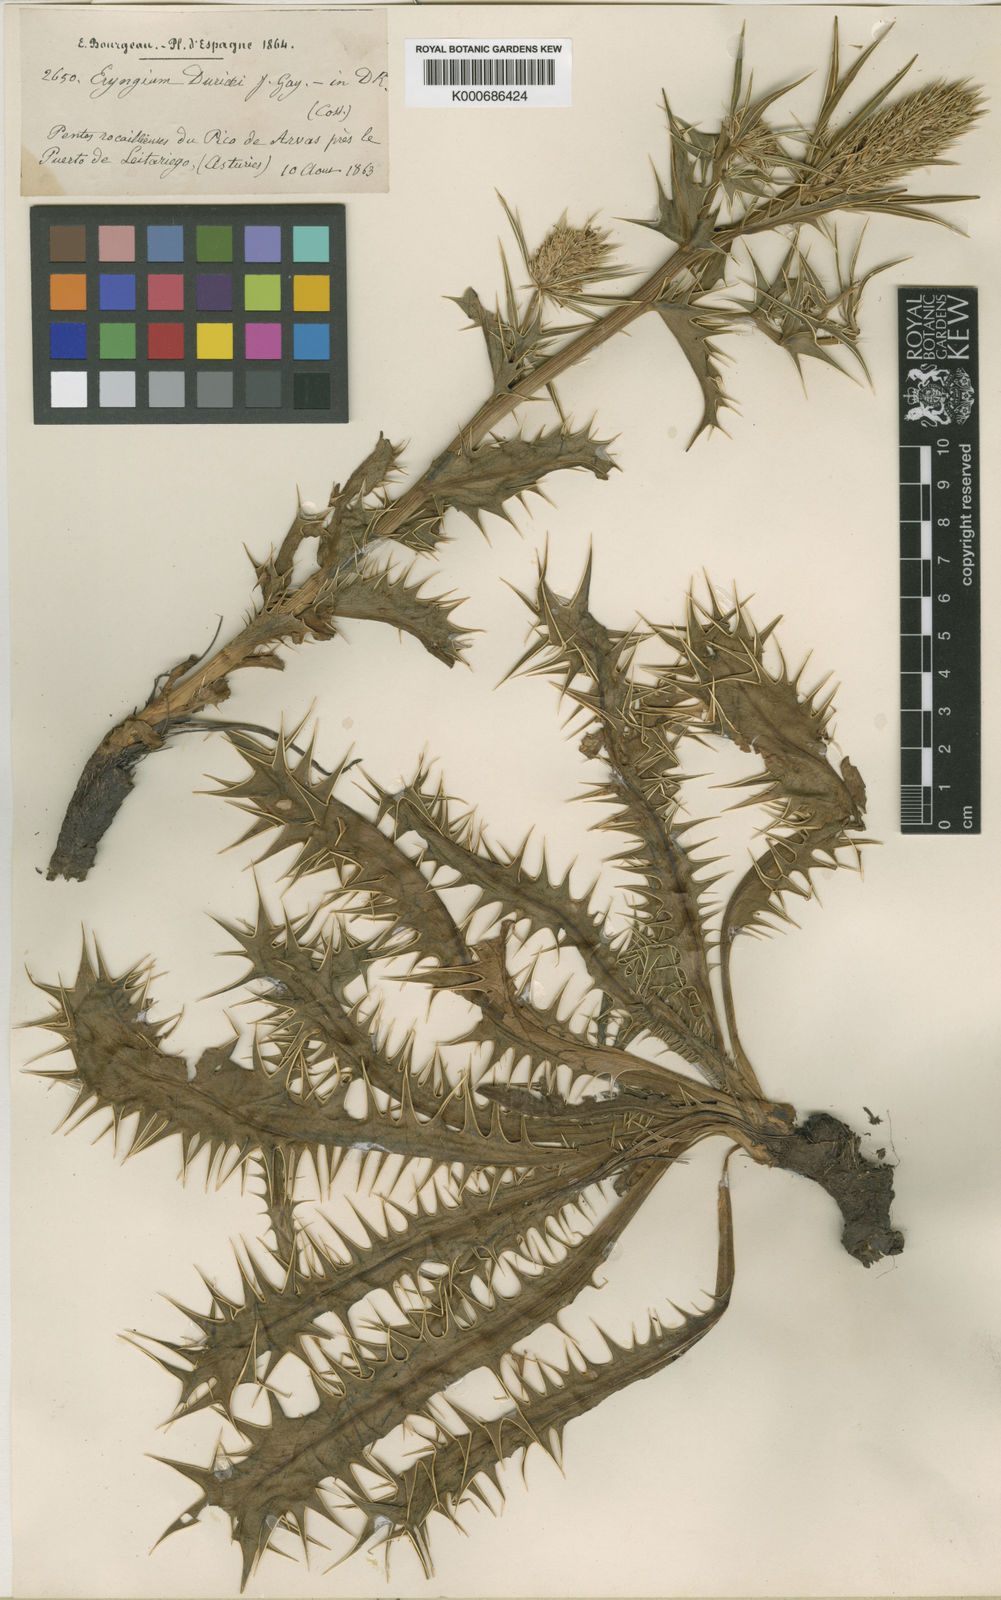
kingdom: Plantae
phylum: Tracheophyta
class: Magnoliopsida
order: Apiales
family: Apiaceae
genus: Eryngium
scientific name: Eryngium duriaei
